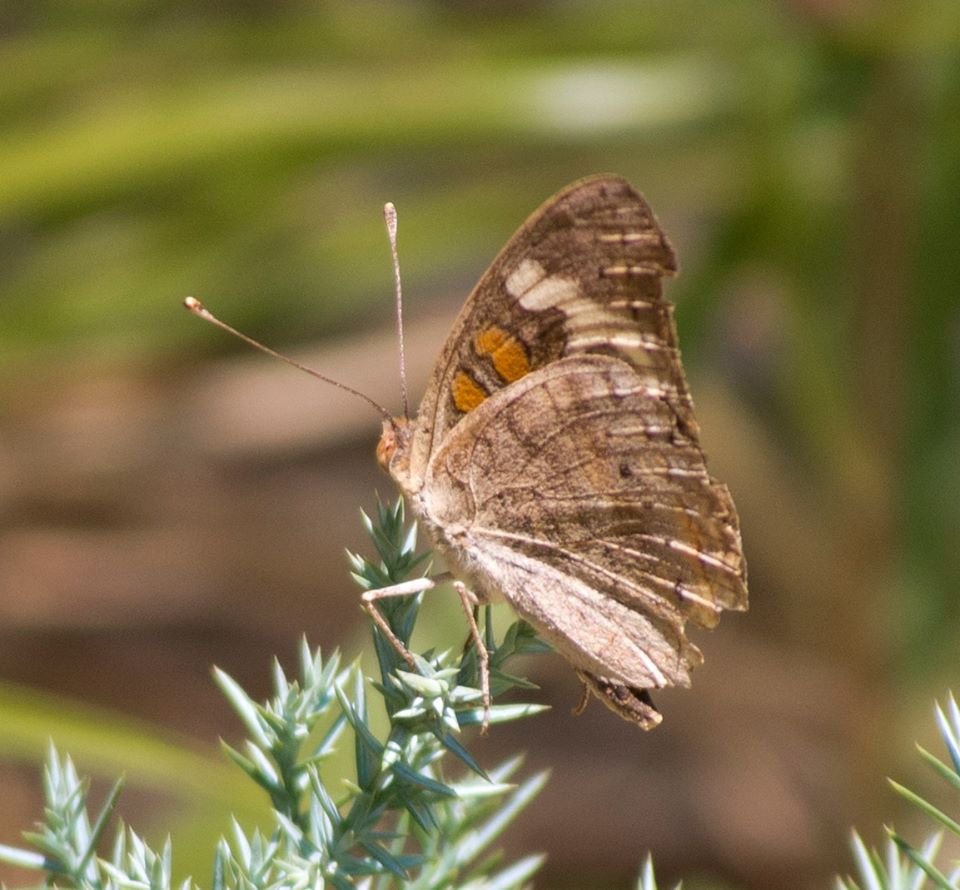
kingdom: Animalia
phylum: Arthropoda
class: Insecta
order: Lepidoptera
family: Nymphalidae
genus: Junonia
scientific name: Junonia coenia
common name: Common Buckeye
